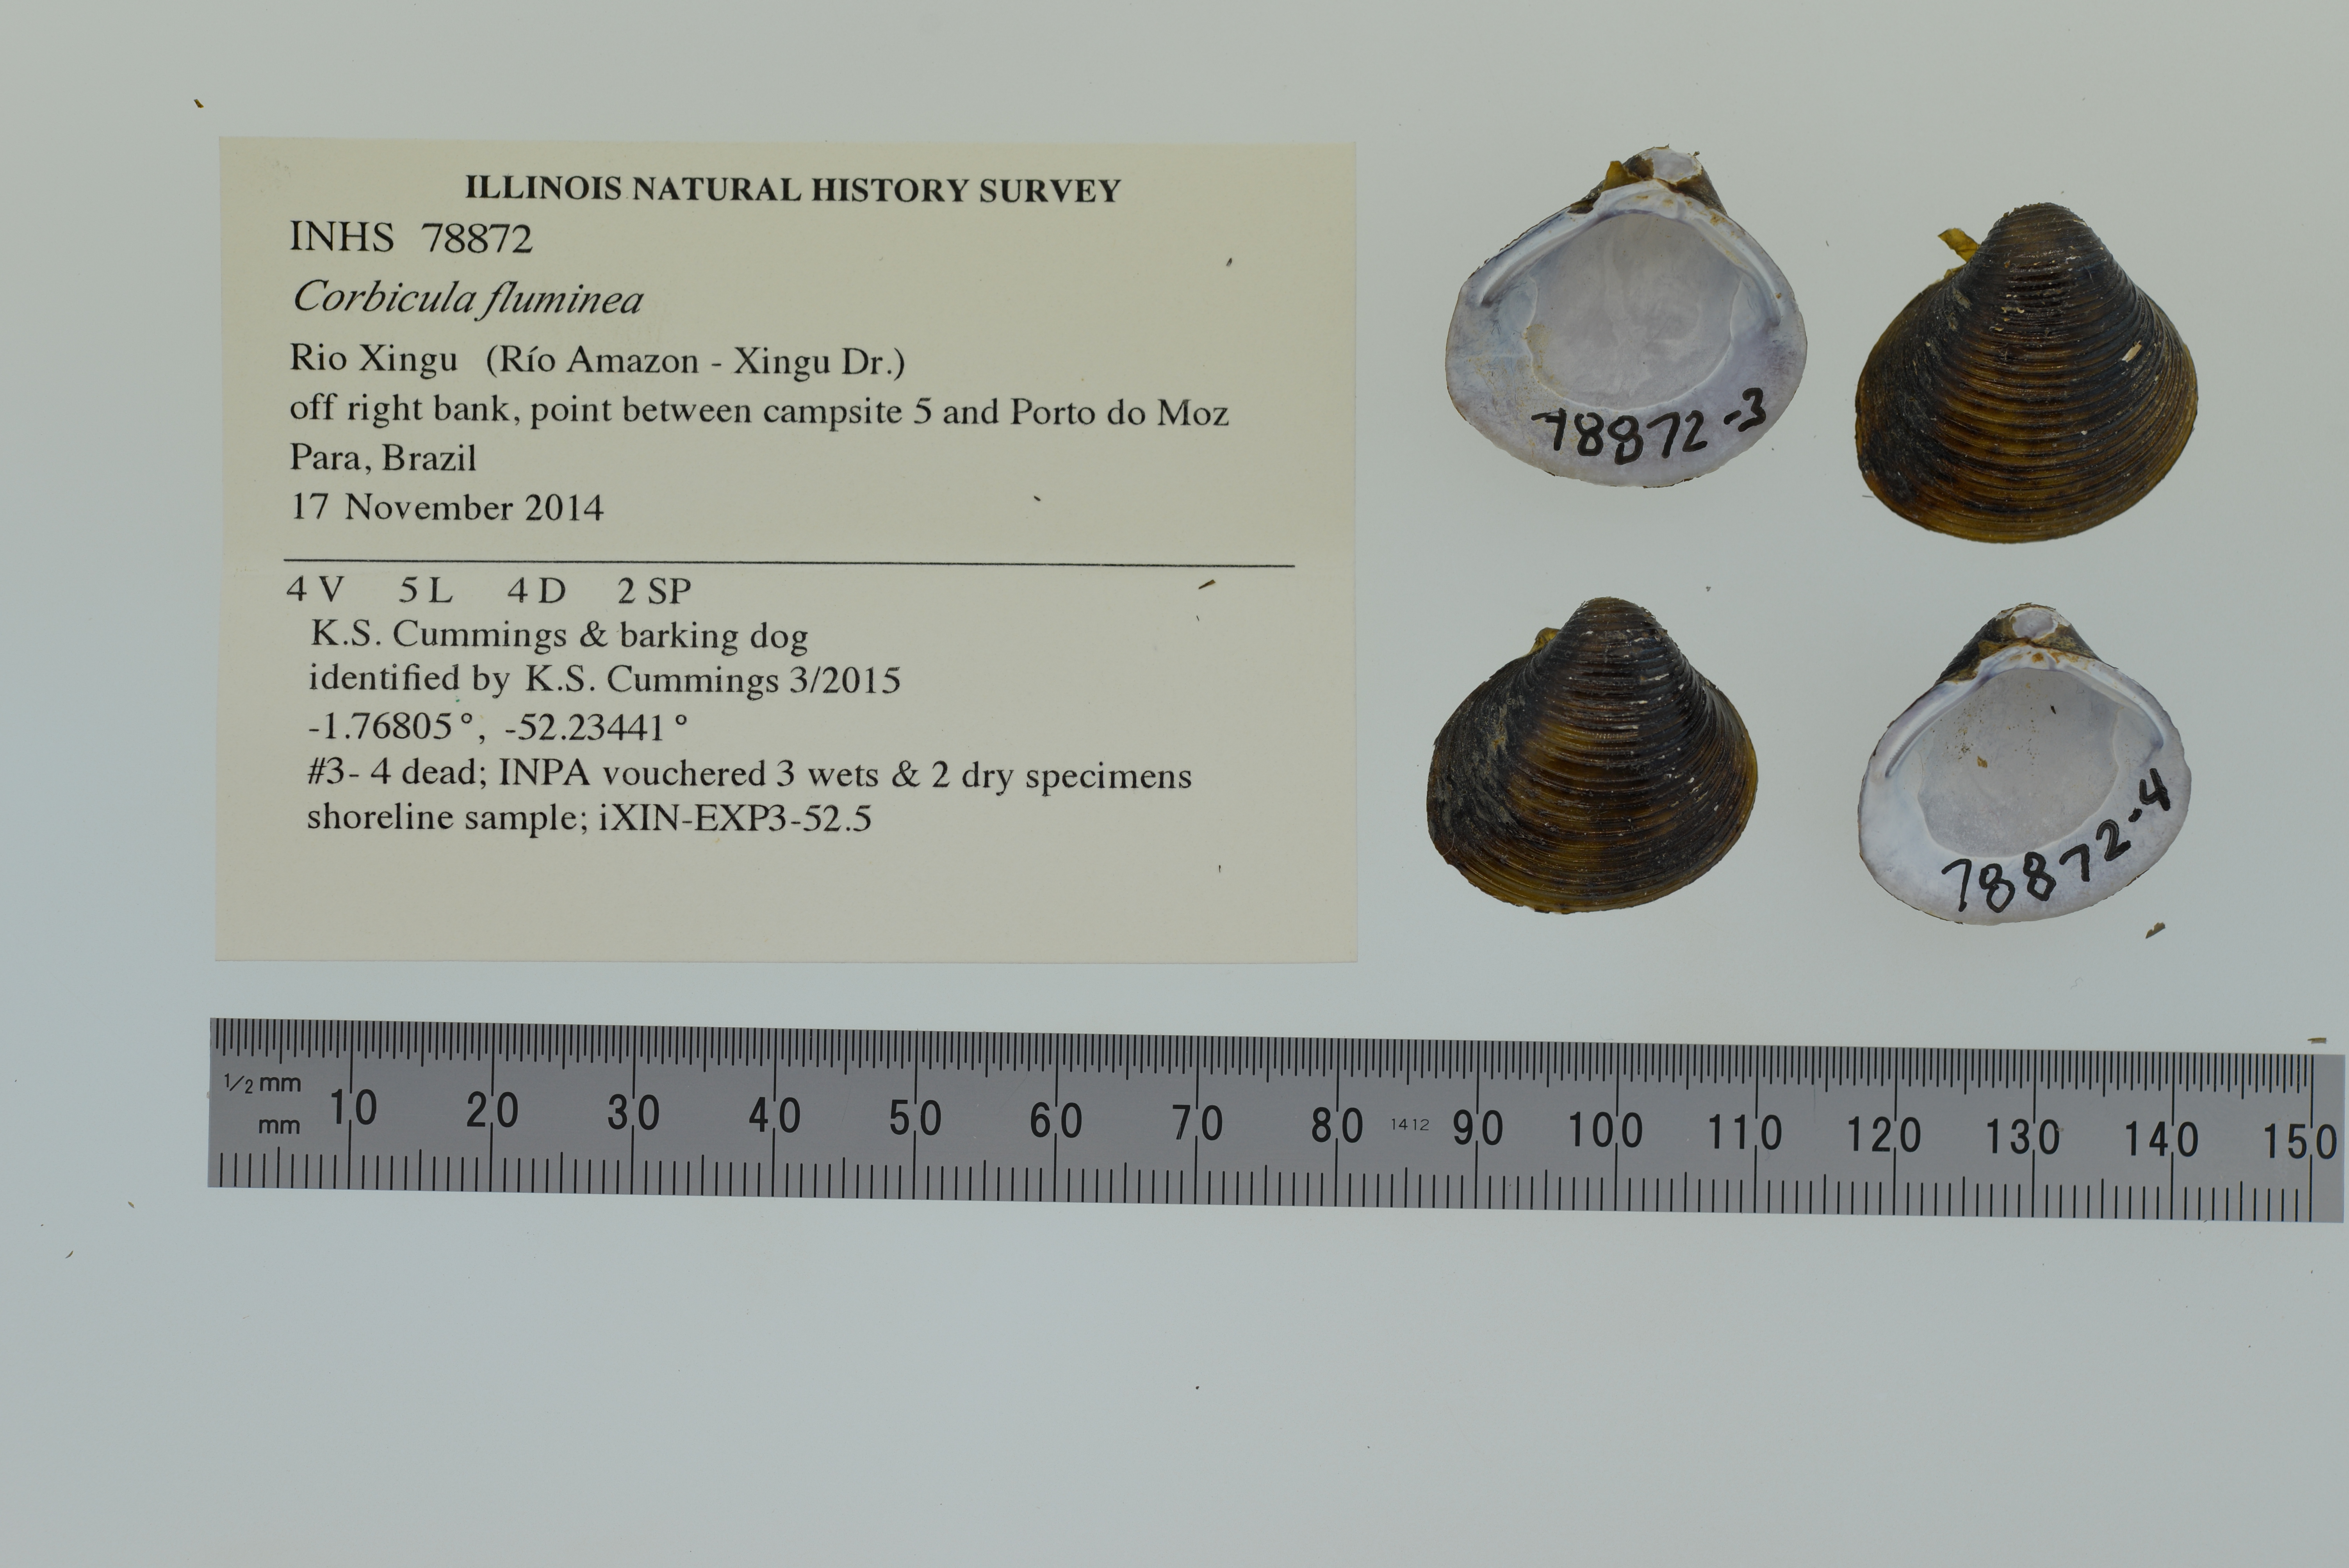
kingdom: Animalia
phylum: Mollusca
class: Bivalvia
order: Venerida
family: Cyrenidae
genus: Corbicula
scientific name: Corbicula fluminea
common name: Asian clam
